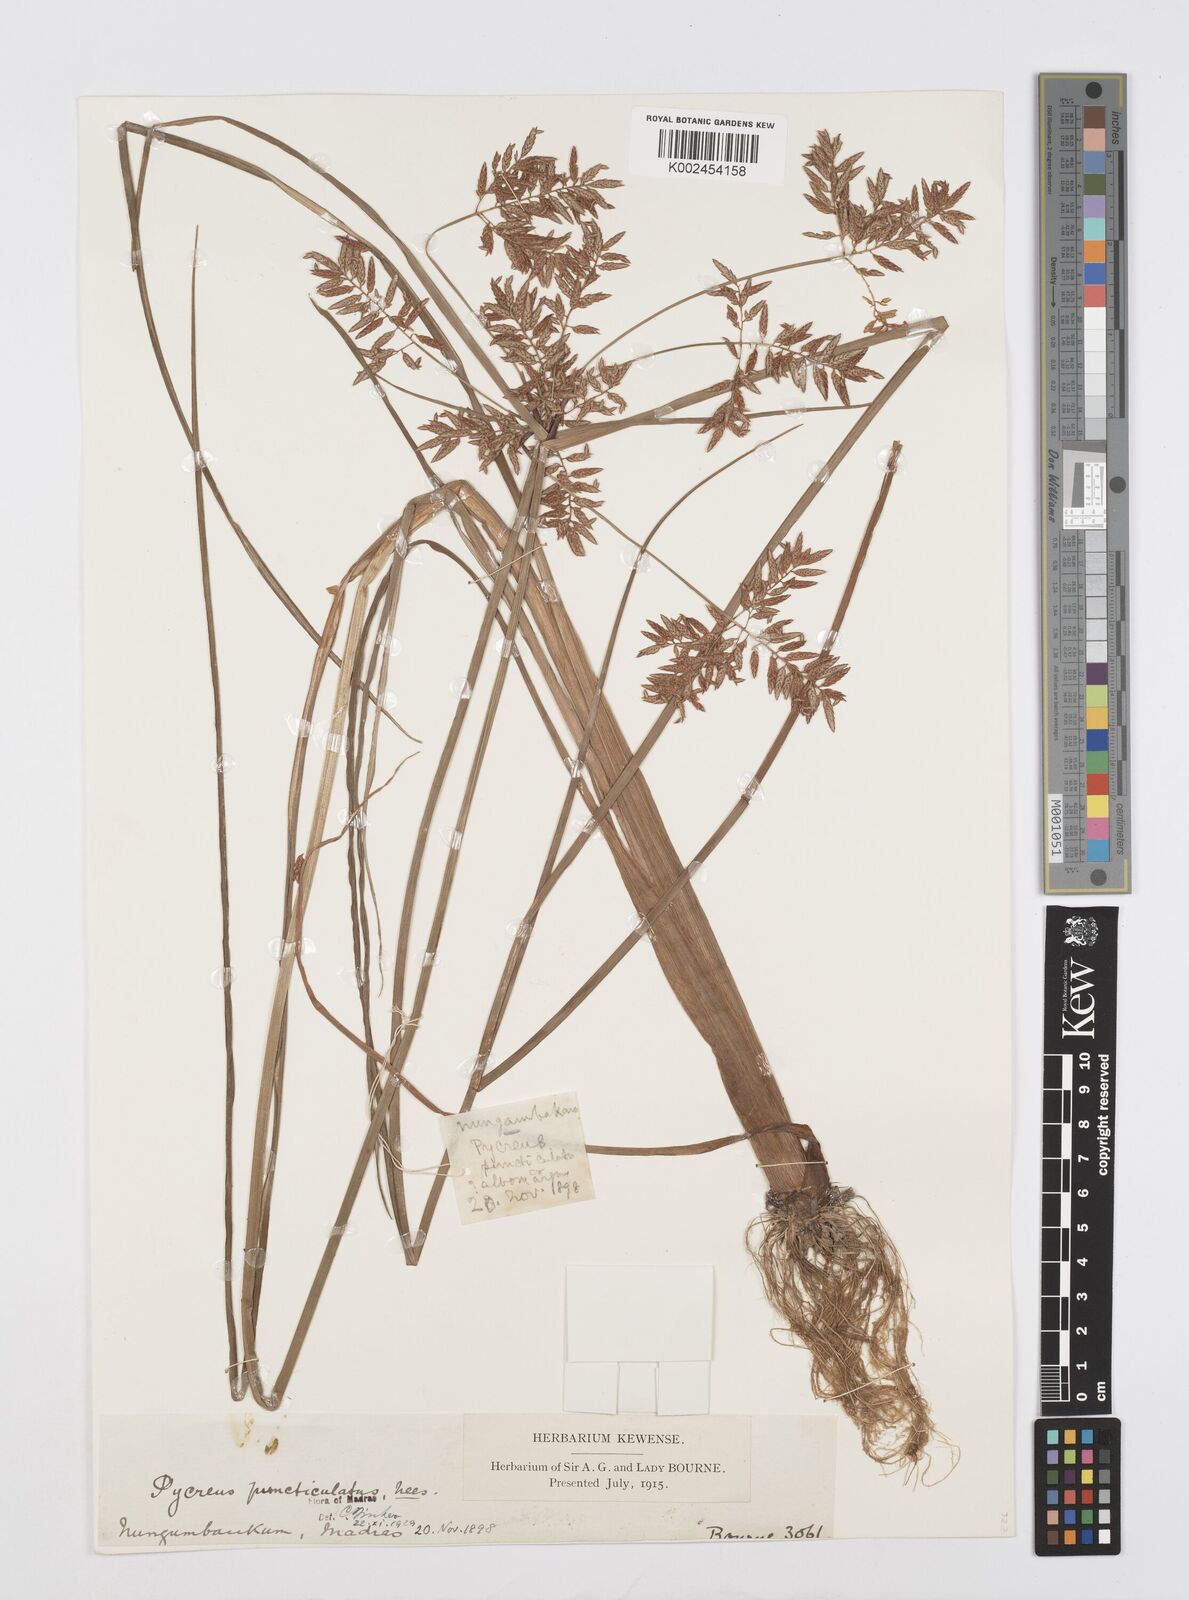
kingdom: Plantae
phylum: Tracheophyta
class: Liliopsida
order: Poales
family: Cyperaceae
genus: Cyperus
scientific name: Cyperus serotinus
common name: Tidalmarsh flatsedge
